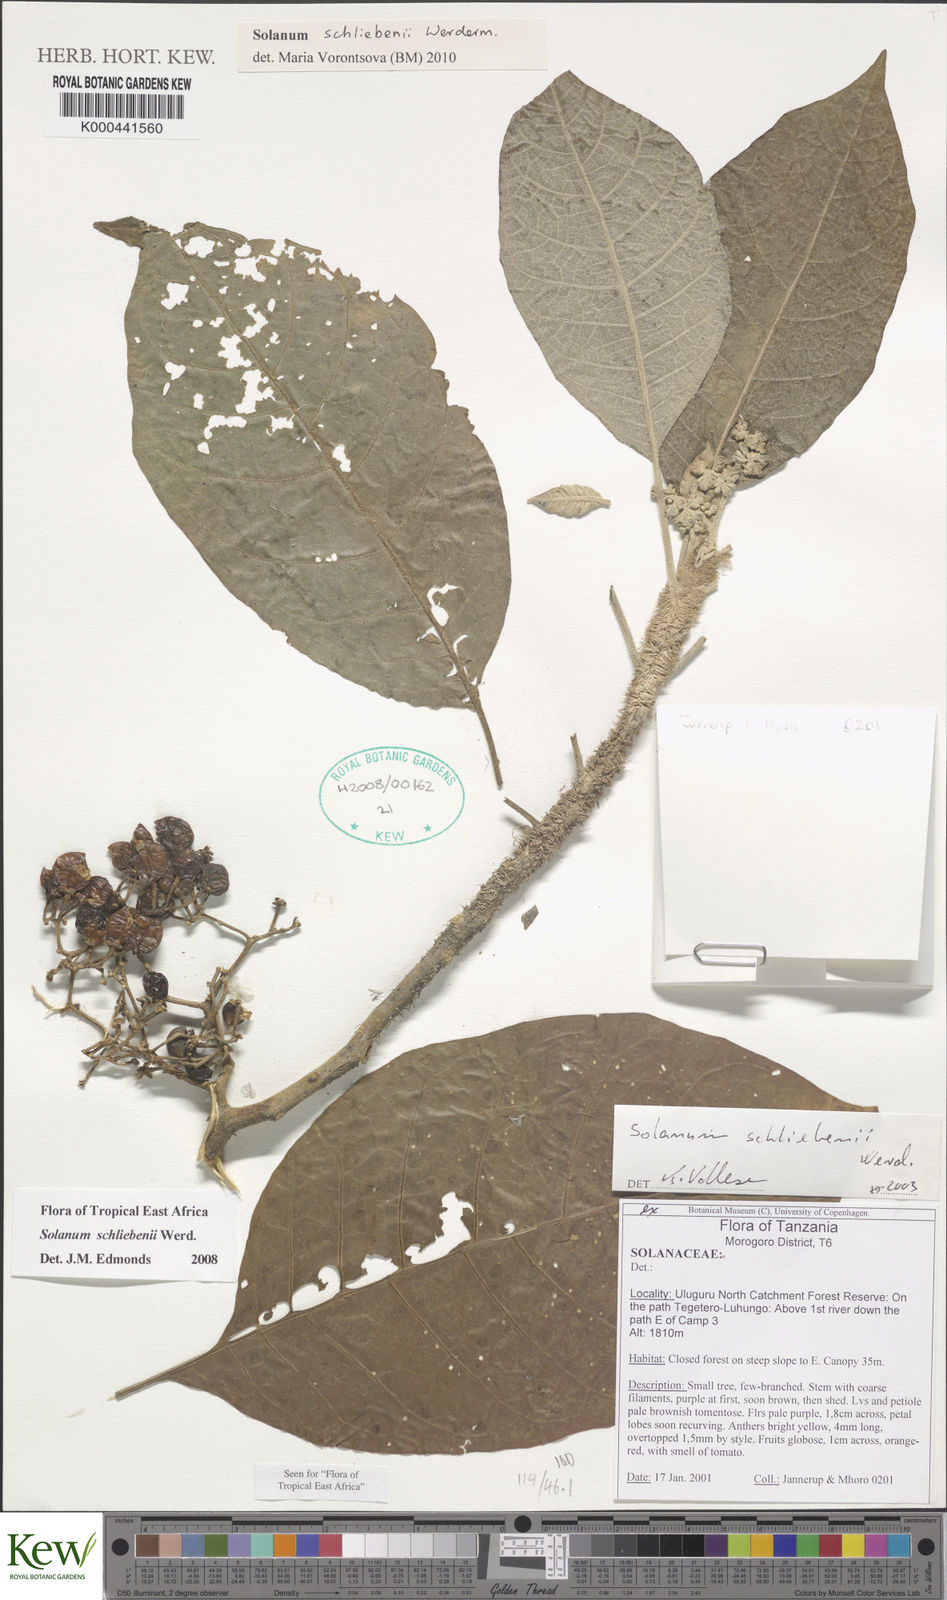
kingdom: Plantae
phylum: Tracheophyta
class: Magnoliopsida
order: Solanales
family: Solanaceae
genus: Solanum
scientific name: Solanum schliebenii
